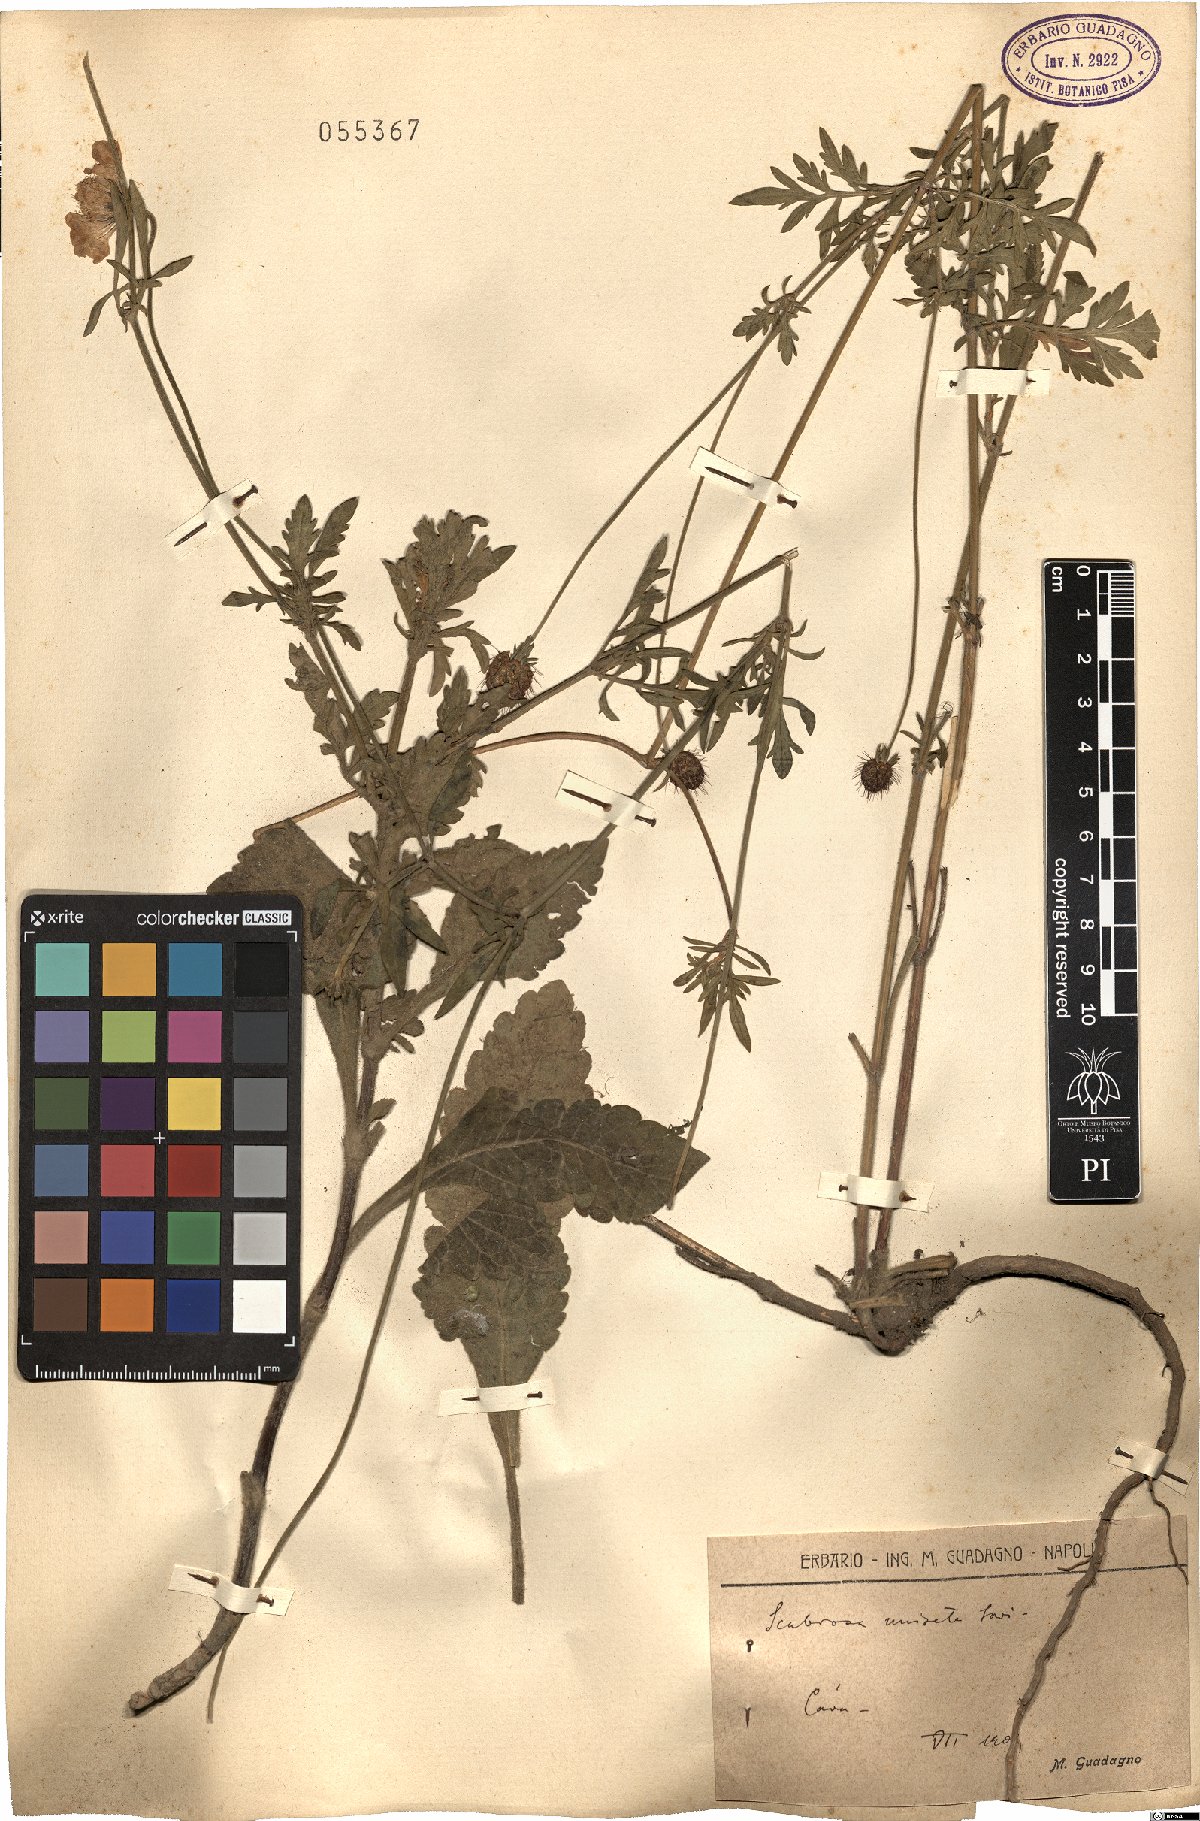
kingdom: Plantae
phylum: Tracheophyta
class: Magnoliopsida
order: Dipsacales
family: Caprifoliaceae
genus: Scabiosa
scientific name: Scabiosa columbaria
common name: Small scabious
